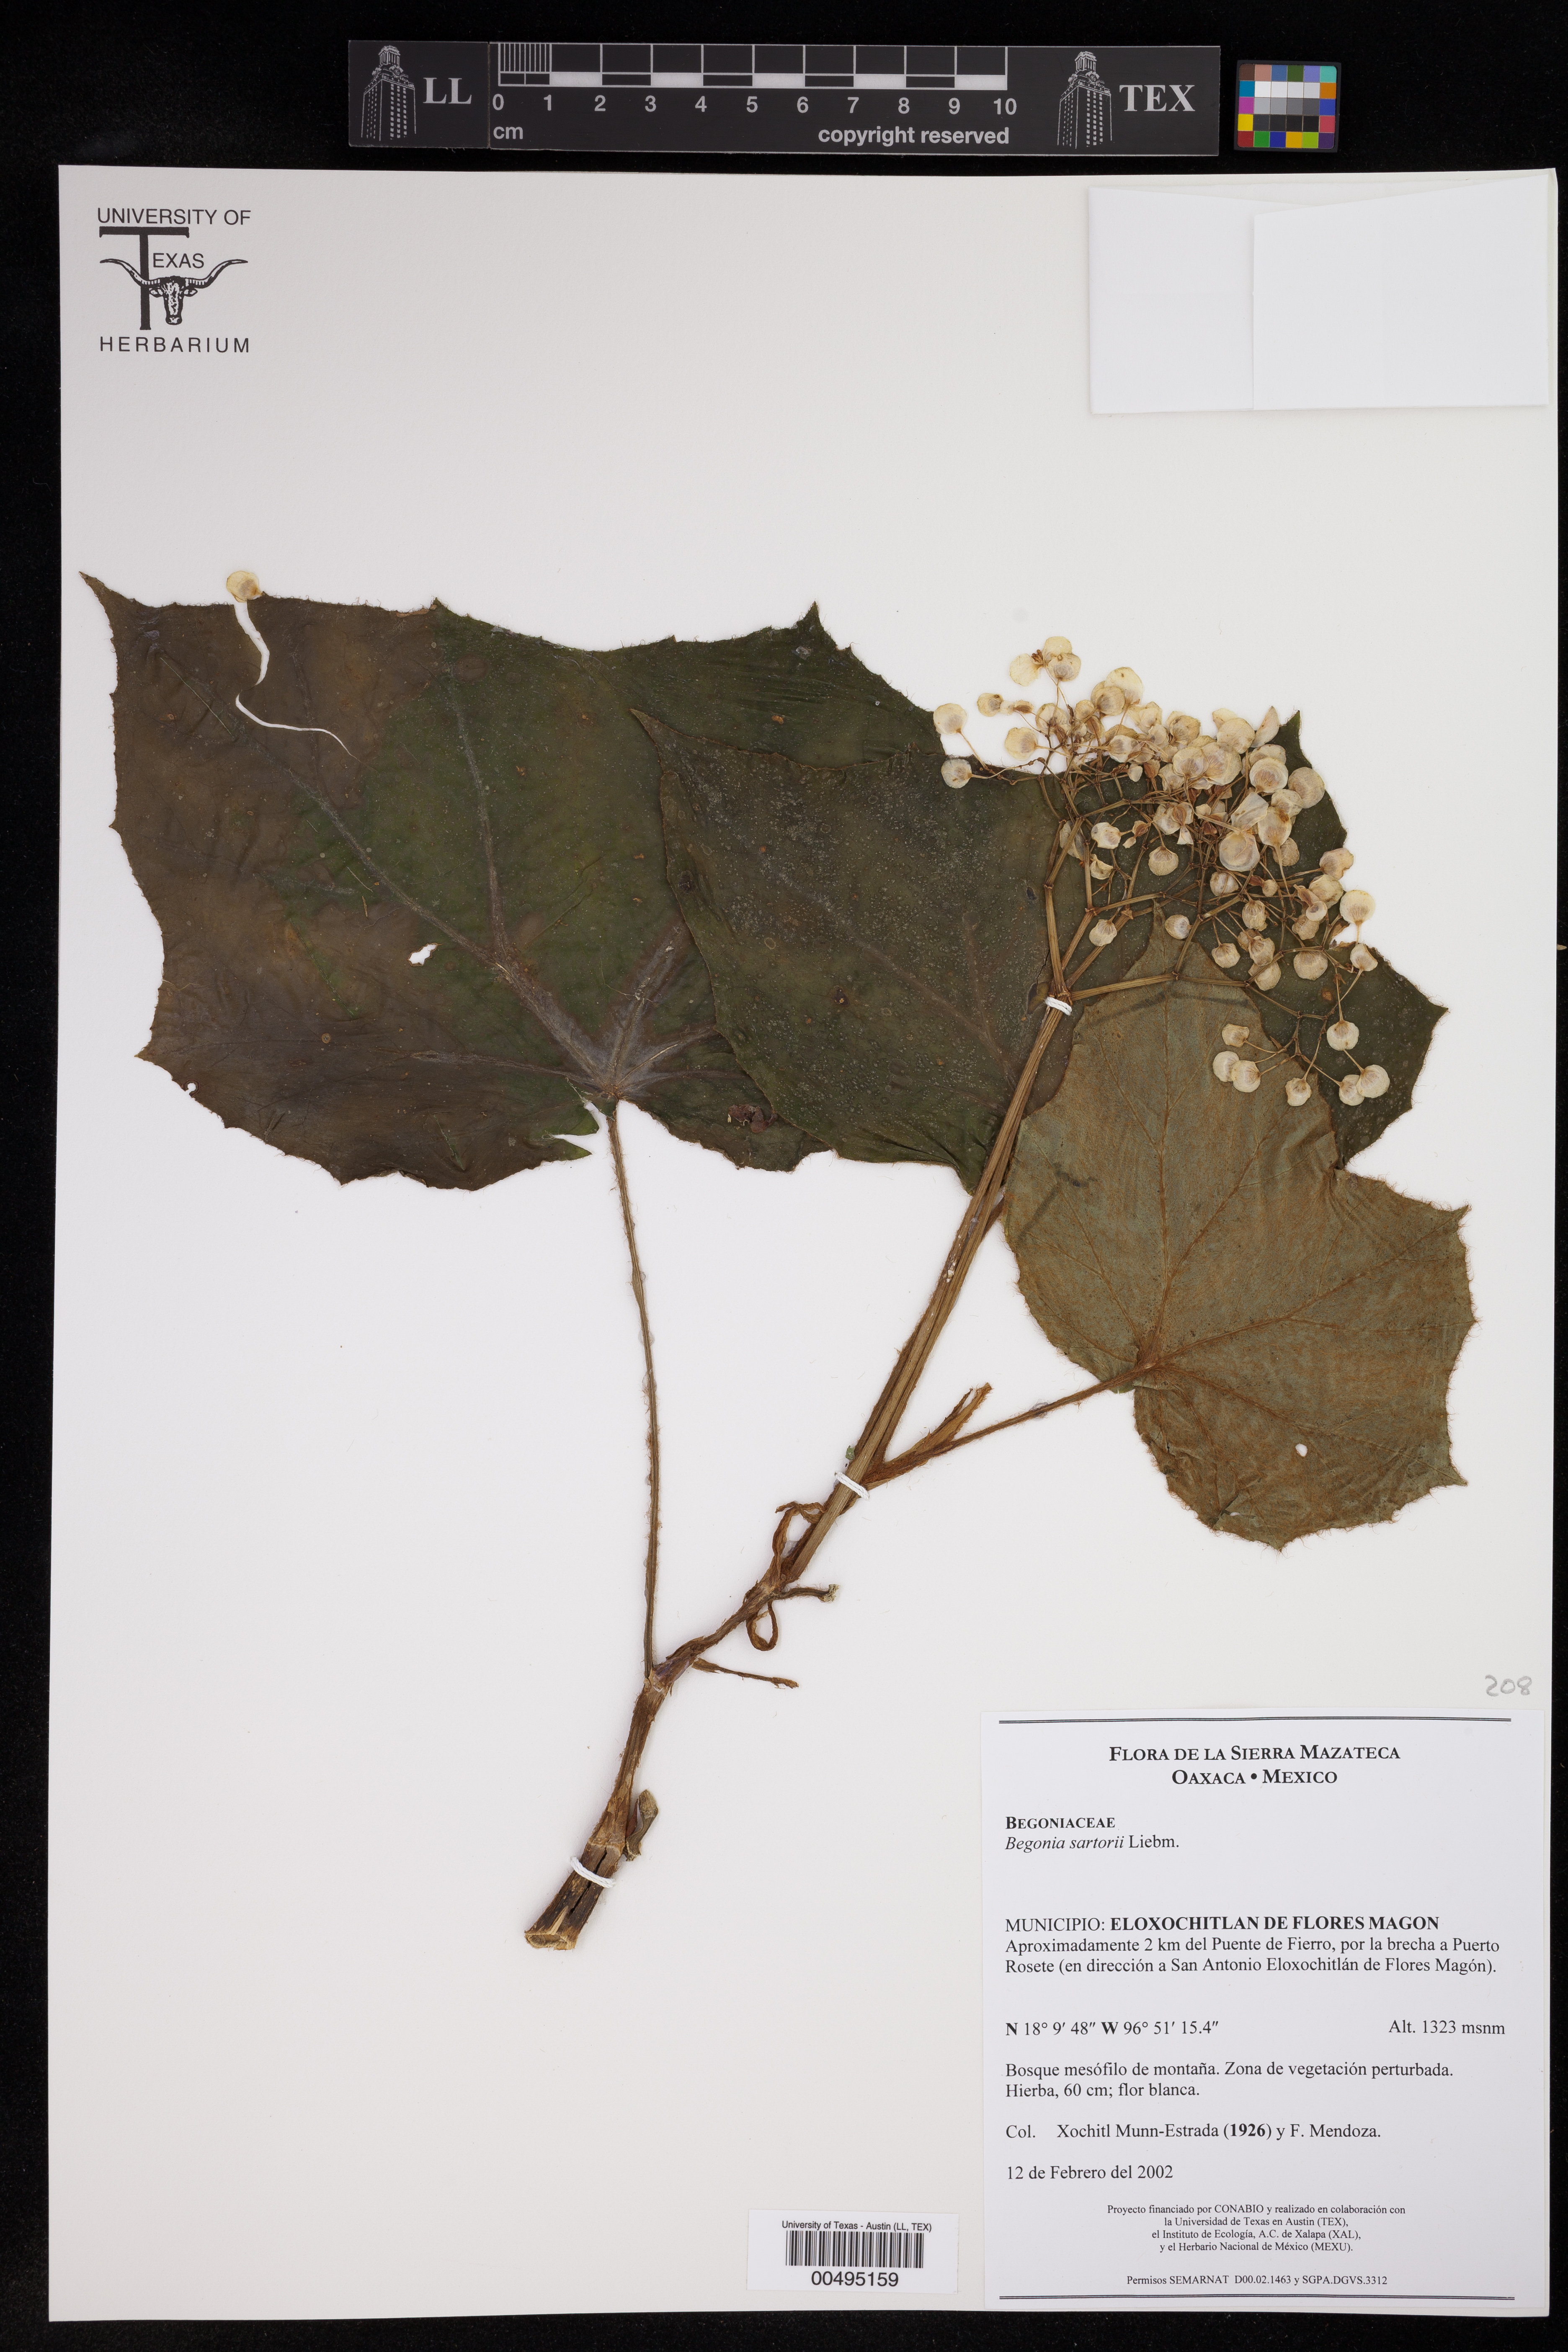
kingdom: Plantae
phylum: Tracheophyta
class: Magnoliopsida
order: Cucurbitales
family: Begoniaceae
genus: Begonia
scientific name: Begonia sartorii
